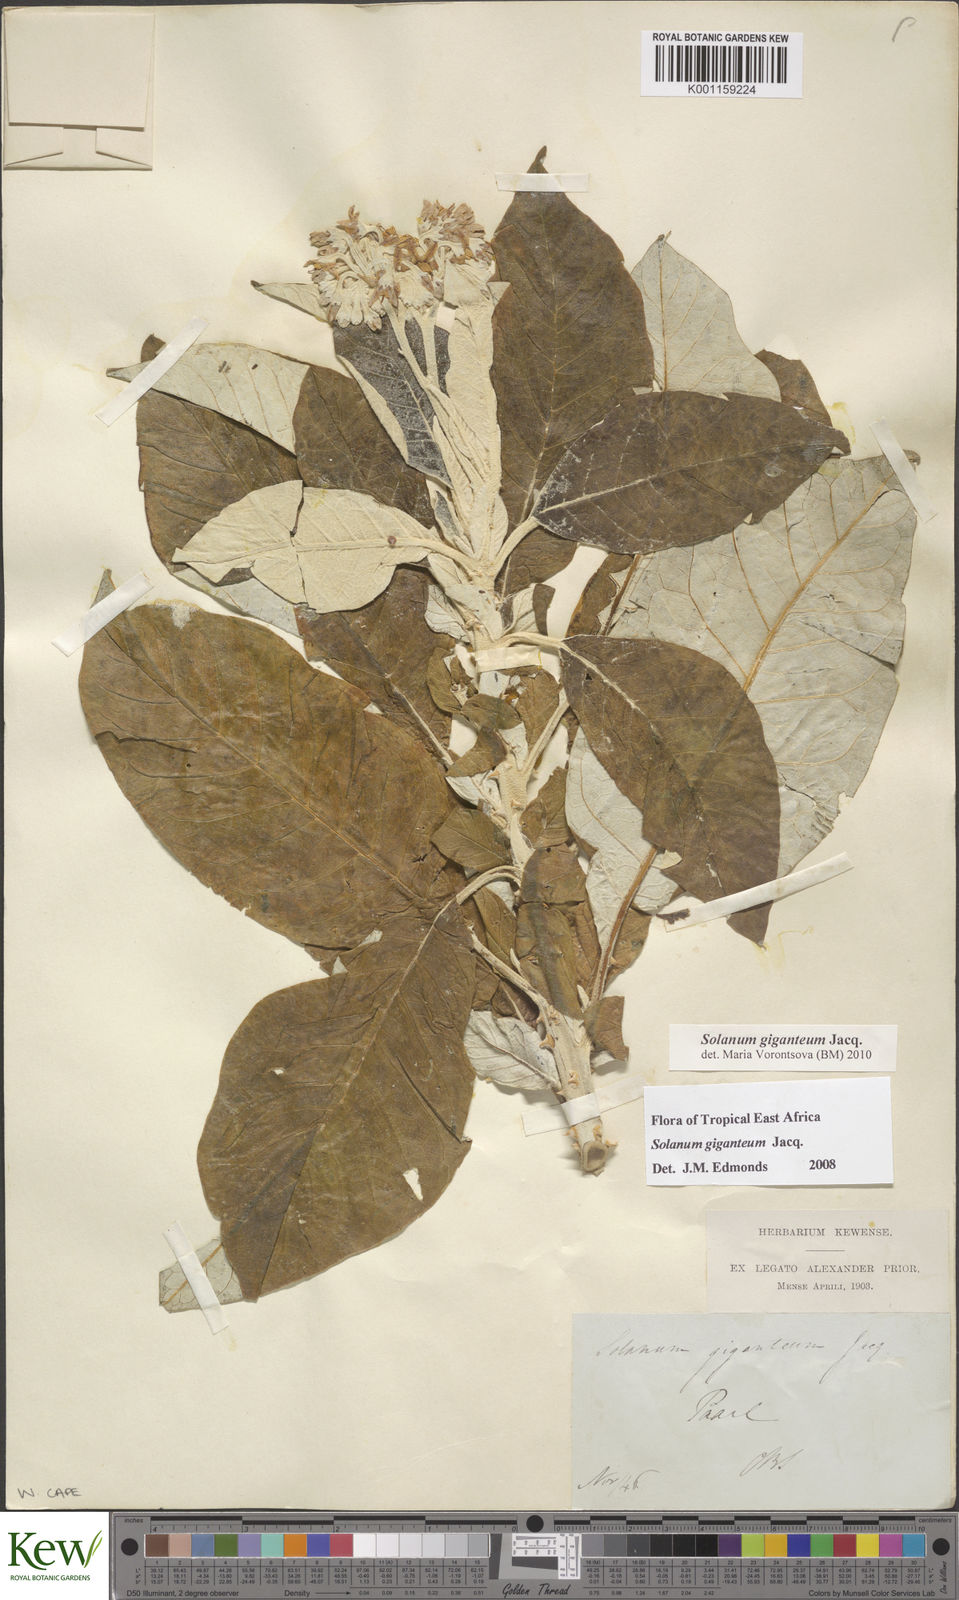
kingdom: Plantae
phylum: Tracheophyta
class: Magnoliopsida
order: Solanales
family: Solanaceae
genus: Solanum
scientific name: Solanum giganteum
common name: Healing-leaf-tree
